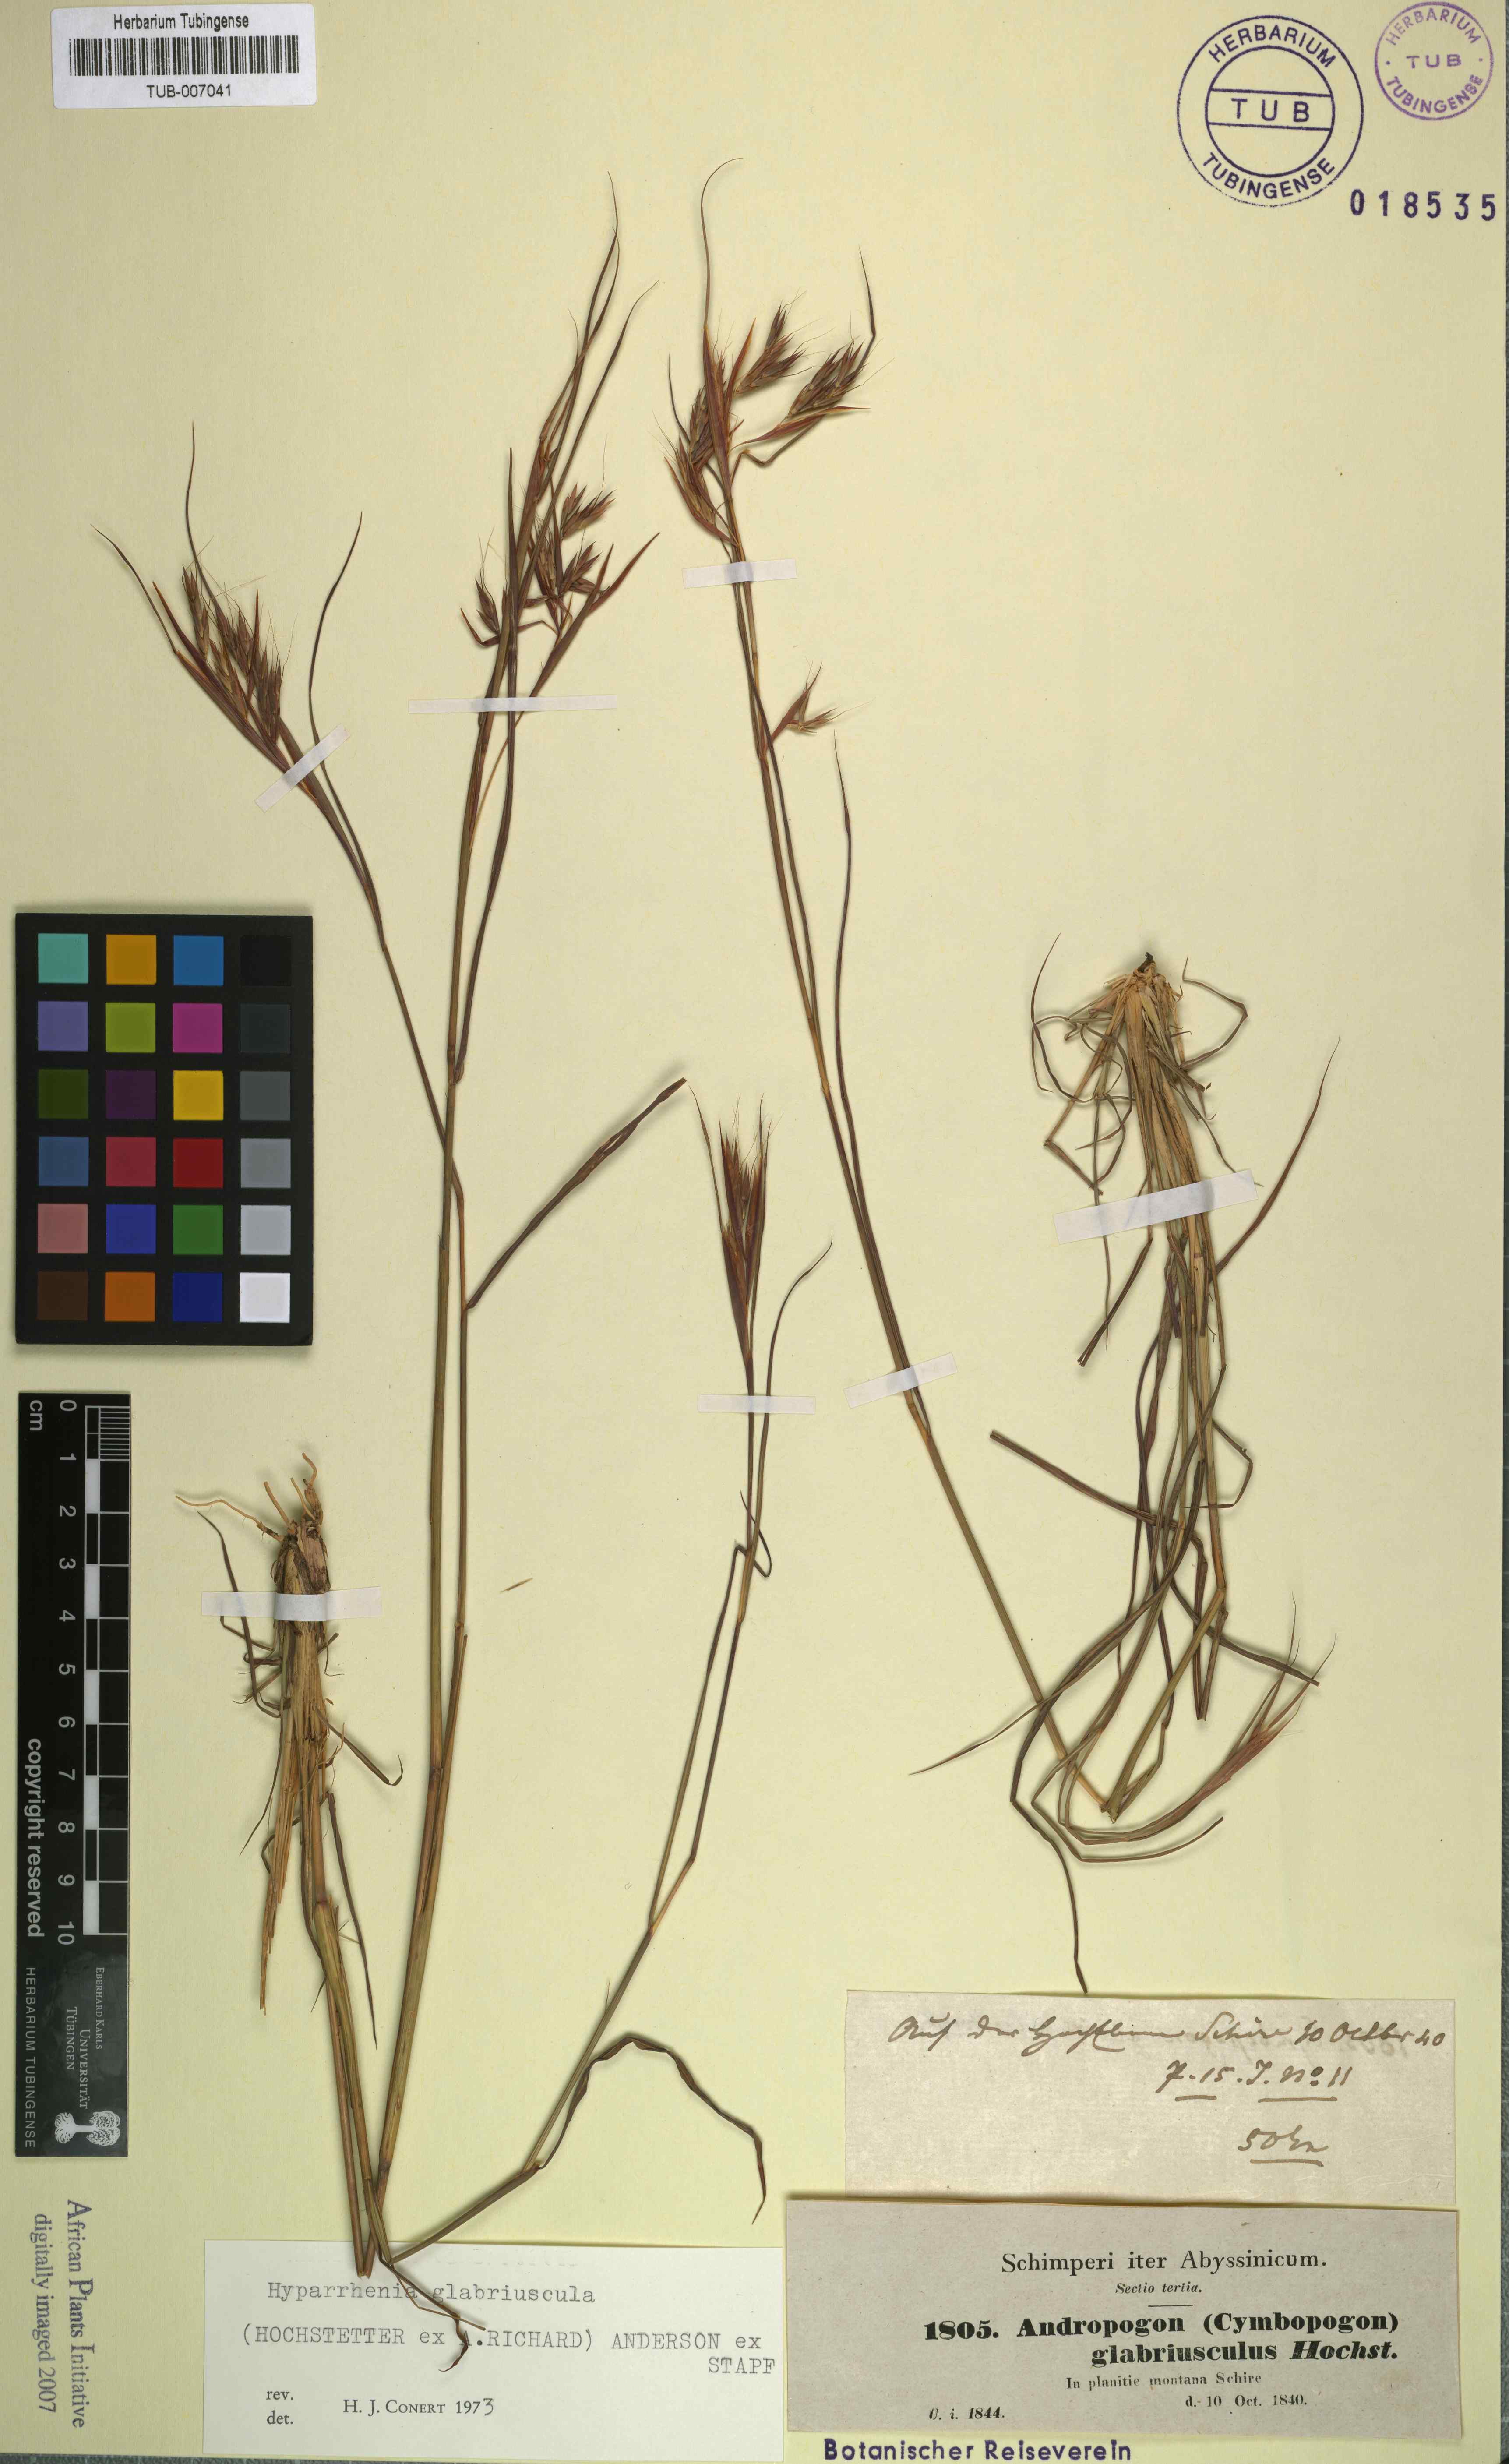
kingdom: Plantae
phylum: Tracheophyta
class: Liliopsida
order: Poales
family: Poaceae
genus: Hyparrhenia
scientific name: Hyparrhenia glabriuscula
